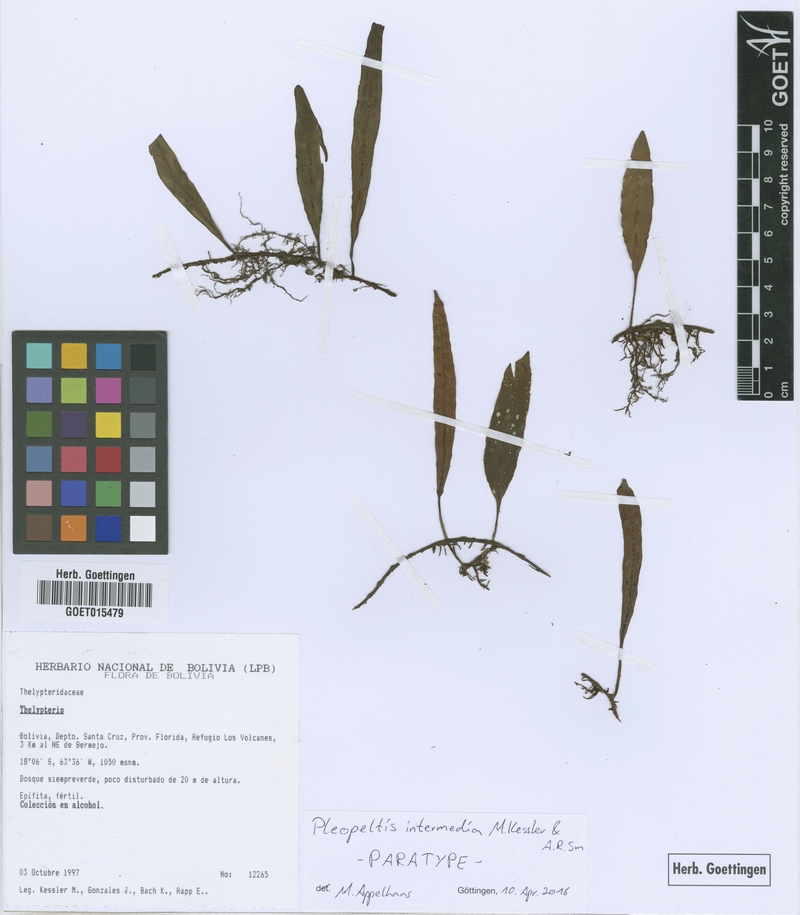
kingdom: Plantae
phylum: Tracheophyta
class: Polypodiopsida
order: Polypodiales
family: Polypodiaceae
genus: Pleopeltis
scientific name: Pleopeltis intermedia
